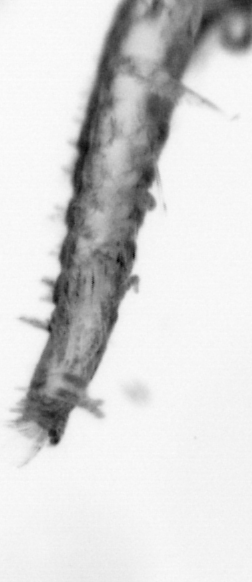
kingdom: Animalia
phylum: Arthropoda
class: Copepoda
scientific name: Copepoda
